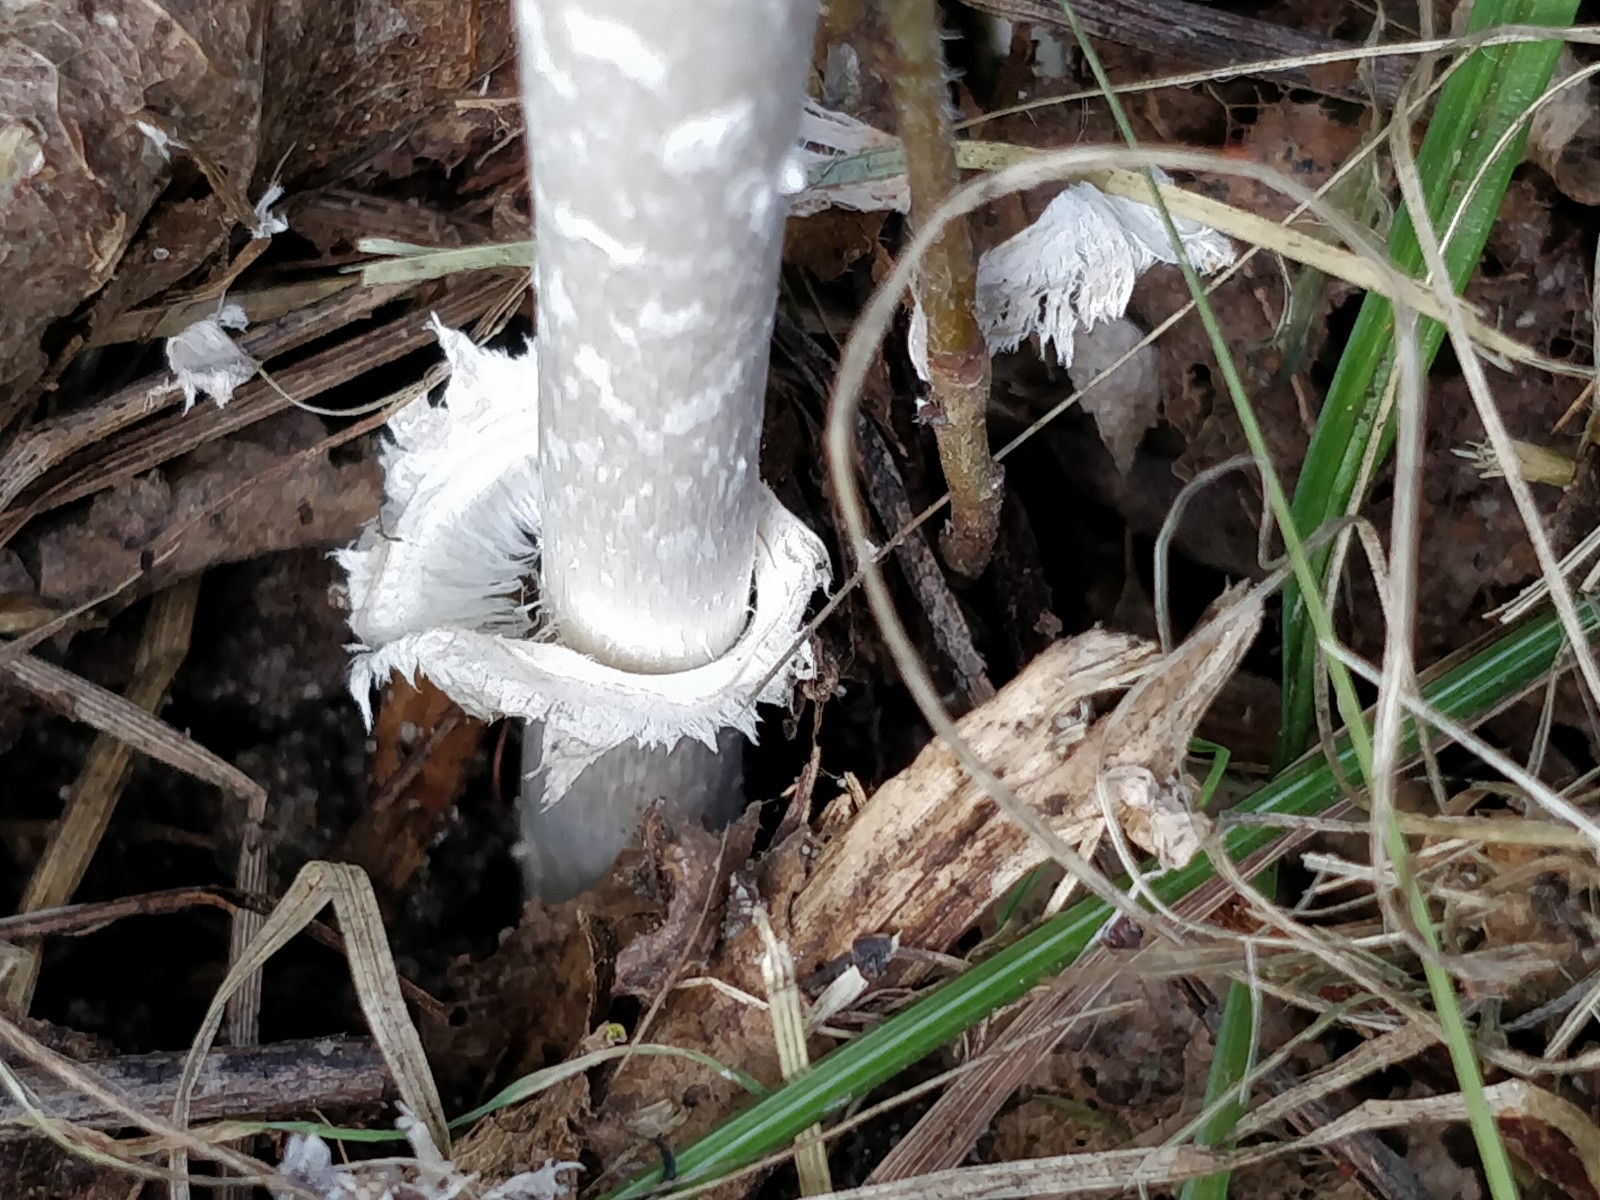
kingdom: Fungi
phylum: Basidiomycota
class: Agaricomycetes
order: Agaricales
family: Agaricaceae
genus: Coprinus
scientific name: Coprinus comatus
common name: stor parykhat
